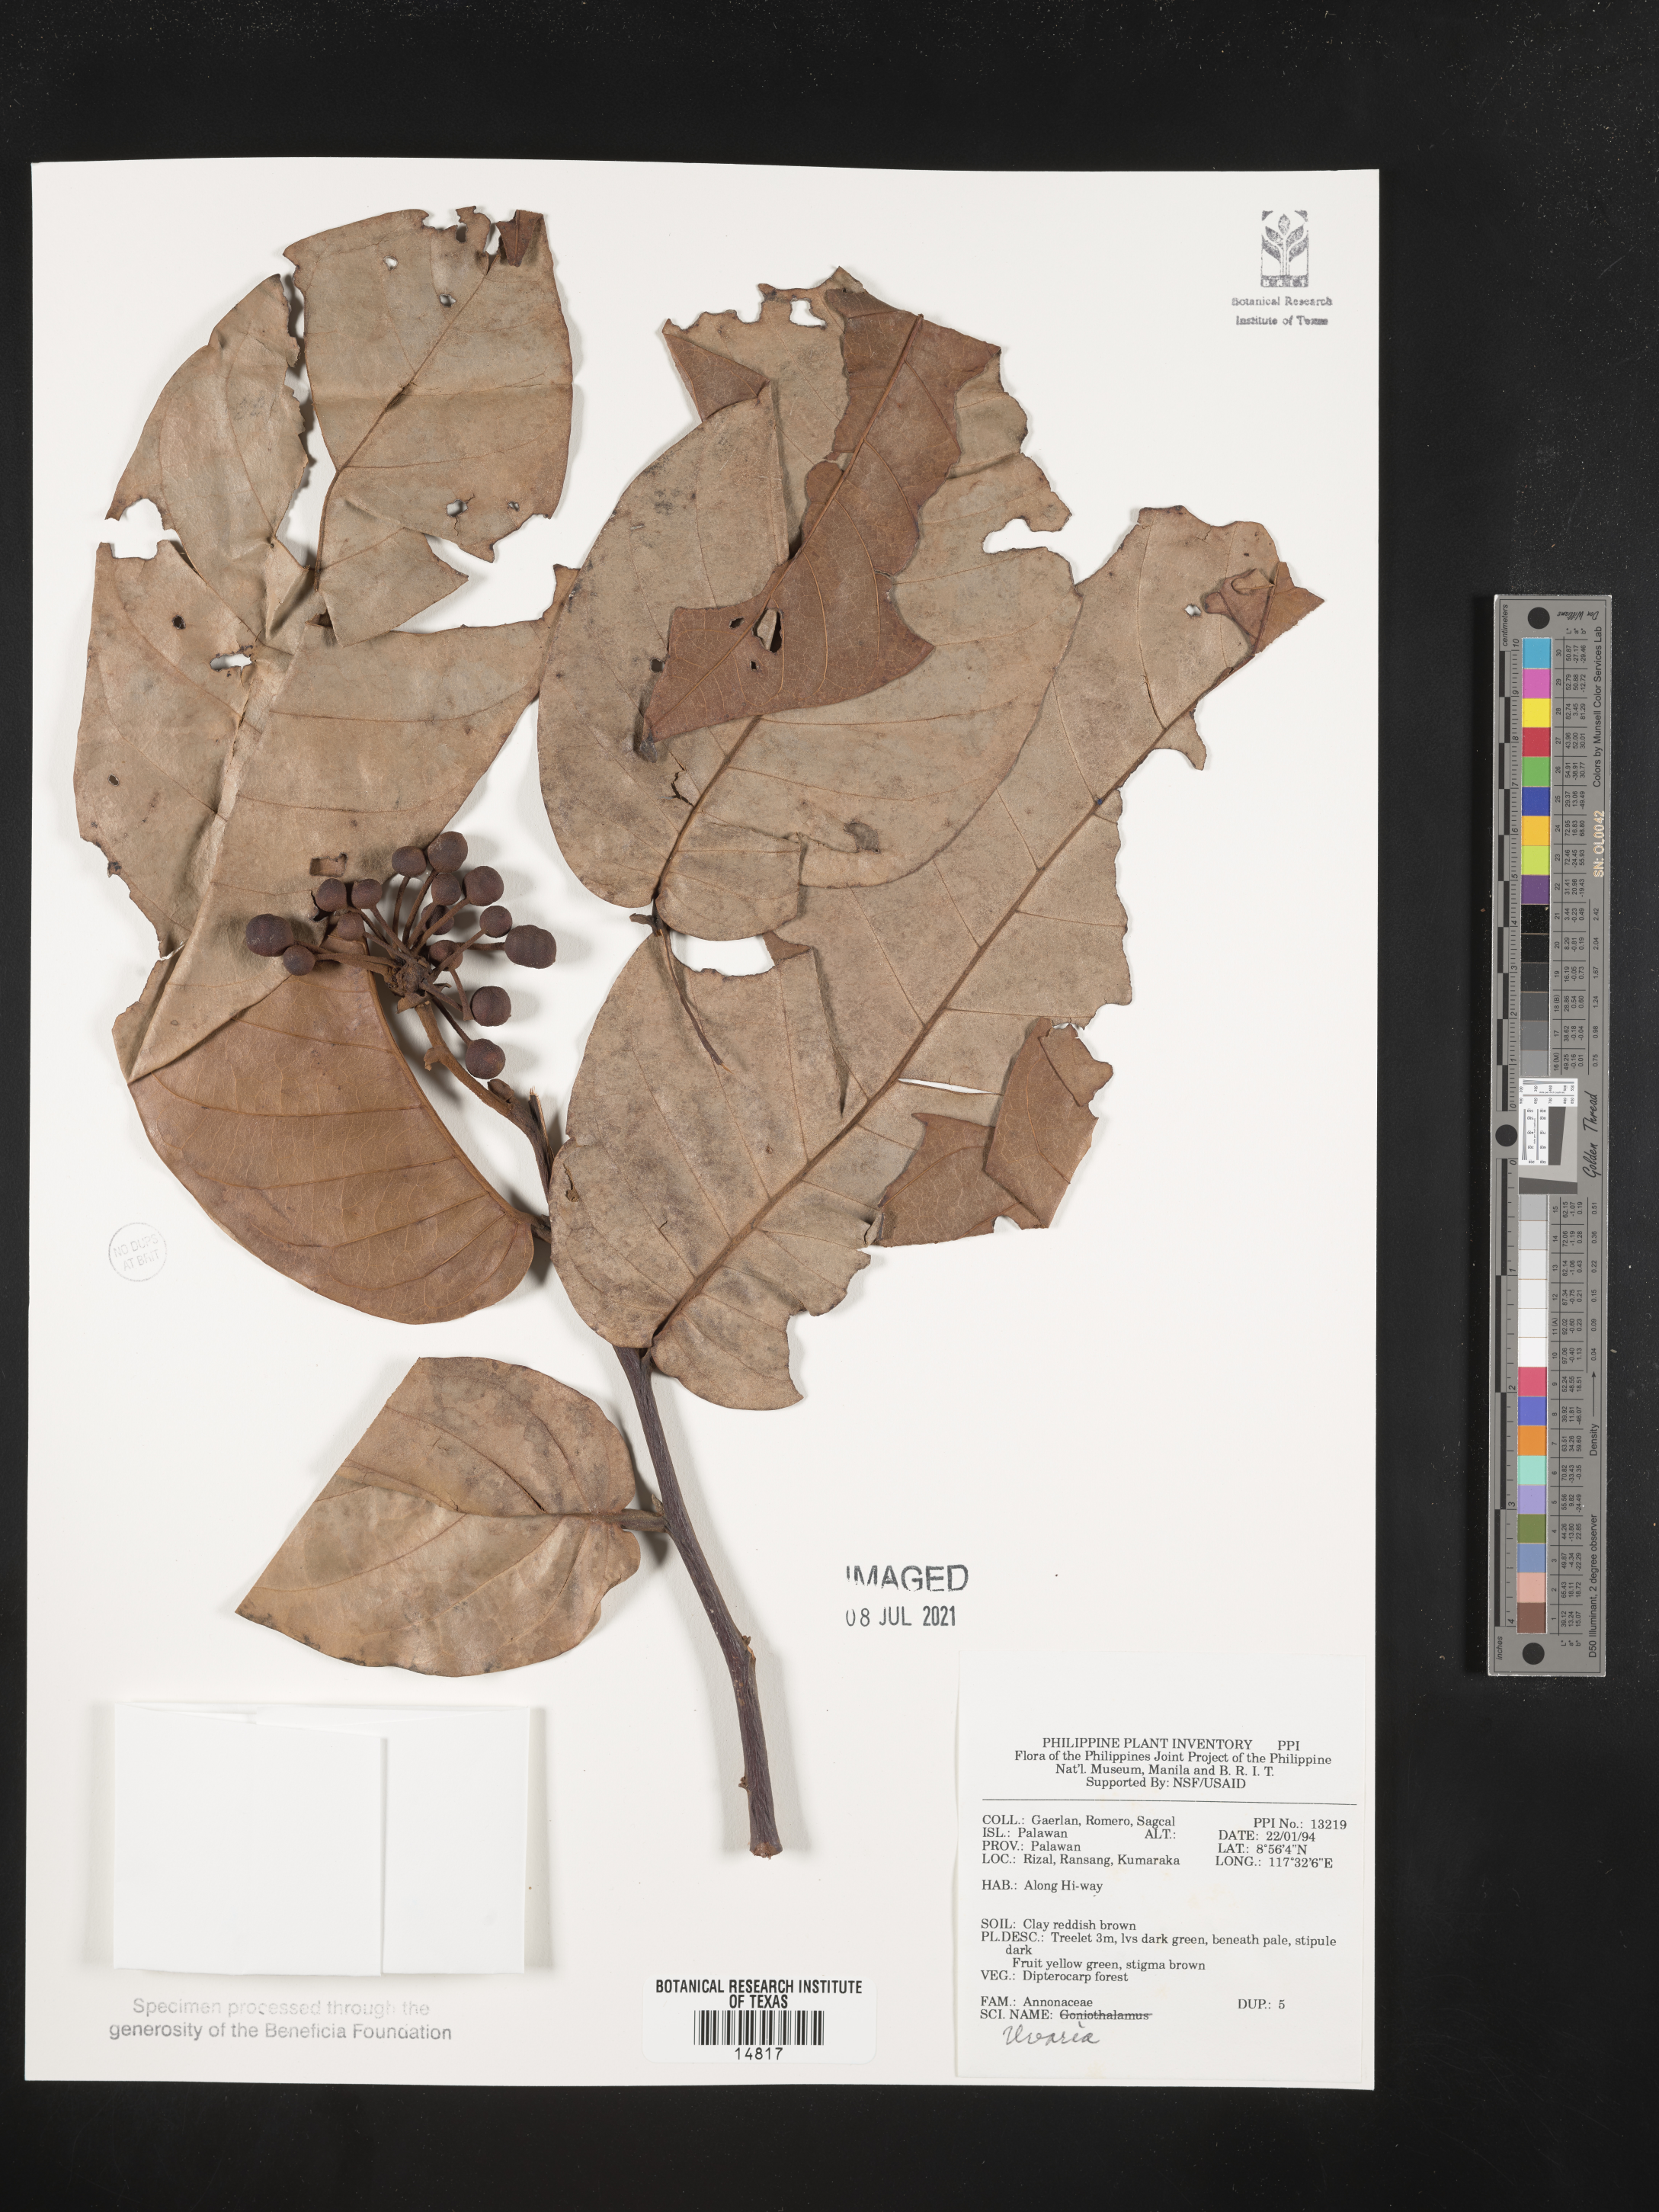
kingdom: Plantae
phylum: Tracheophyta
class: Magnoliopsida
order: Magnoliales
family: Annonaceae
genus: Uvaria
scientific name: Uvaria
